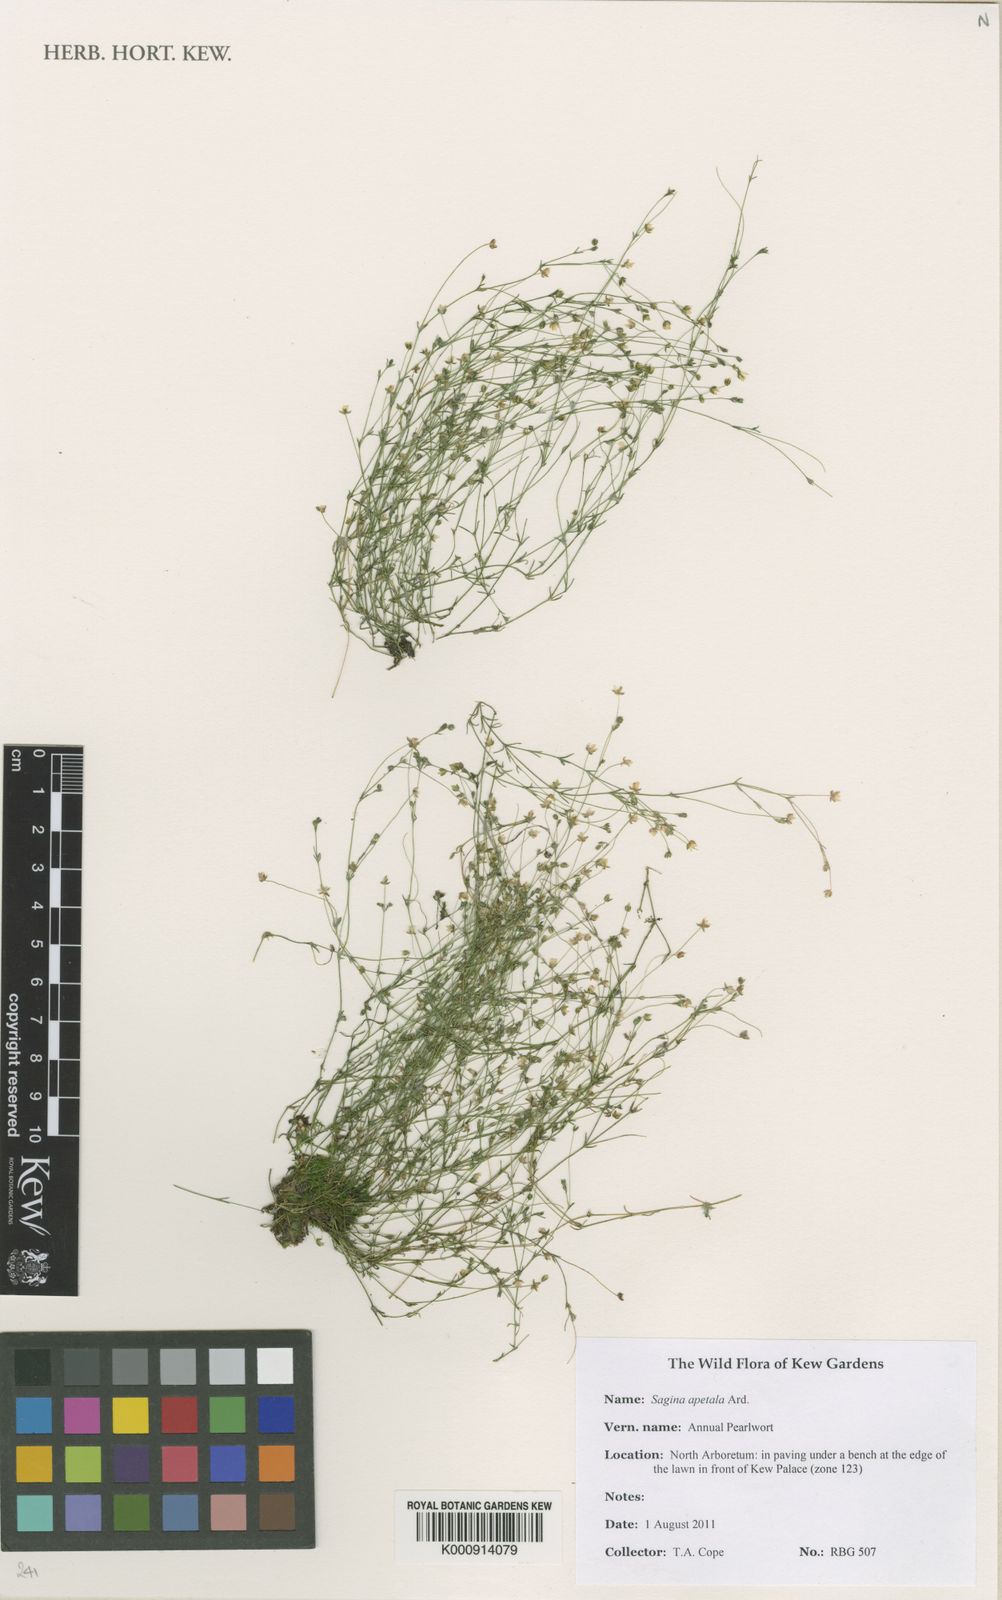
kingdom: Plantae
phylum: Tracheophyta
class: Magnoliopsida
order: Caryophyllales
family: Caryophyllaceae
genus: Sagina
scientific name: Sagina apetala
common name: Annual pearlwort
